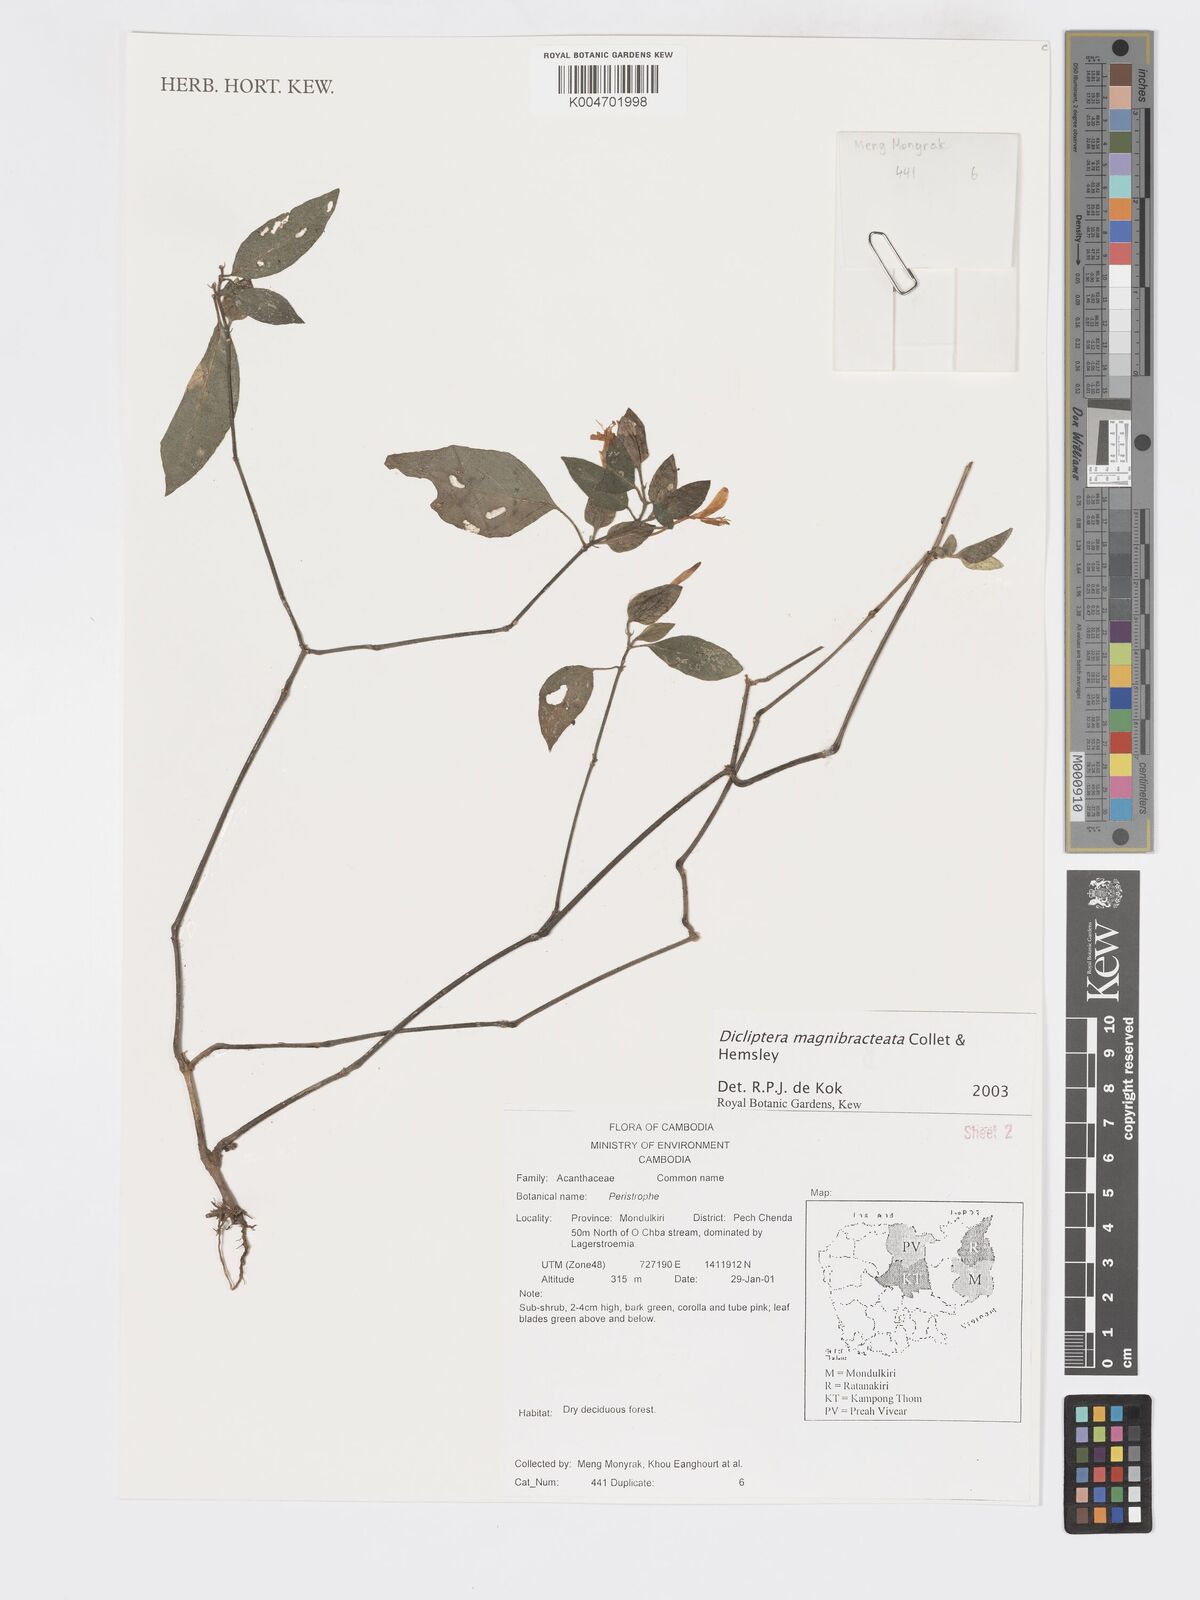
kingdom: Plantae
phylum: Tracheophyta
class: Magnoliopsida
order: Lamiales
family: Acanthaceae
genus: Dicliptera
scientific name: Dicliptera magnibracteata
